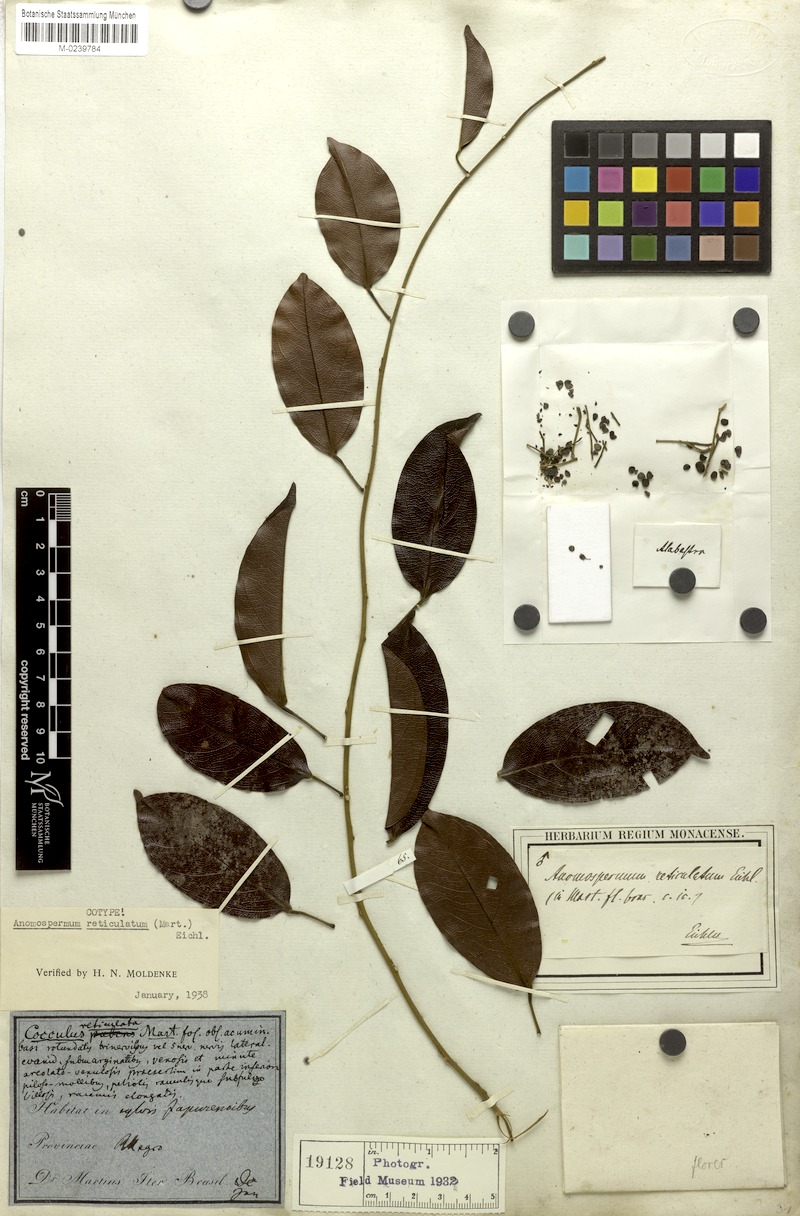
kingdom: Plantae
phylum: Tracheophyta
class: Magnoliopsida
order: Ranunculales
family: Menispermaceae
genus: Anomospermum
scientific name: Anomospermum reticulatum
